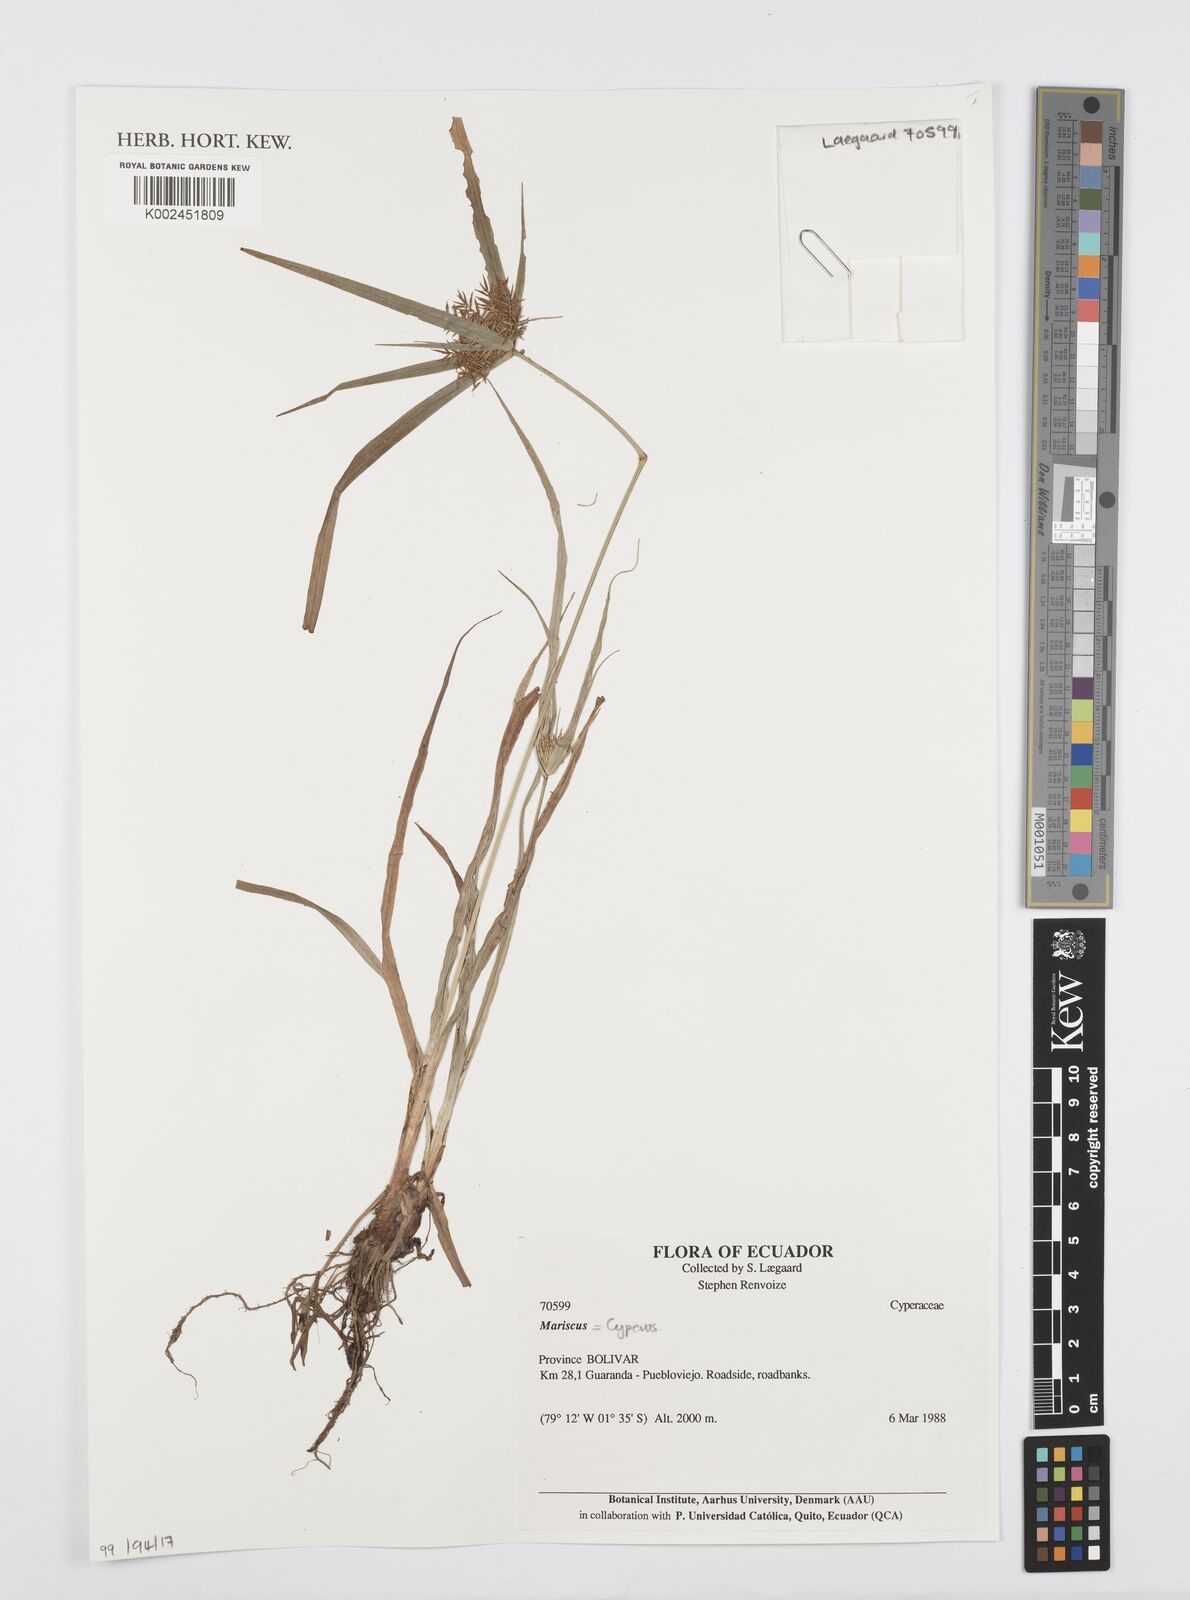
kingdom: Plantae
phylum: Tracheophyta
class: Liliopsida
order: Poales
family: Cyperaceae
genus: Cyperus
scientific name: Cyperus
